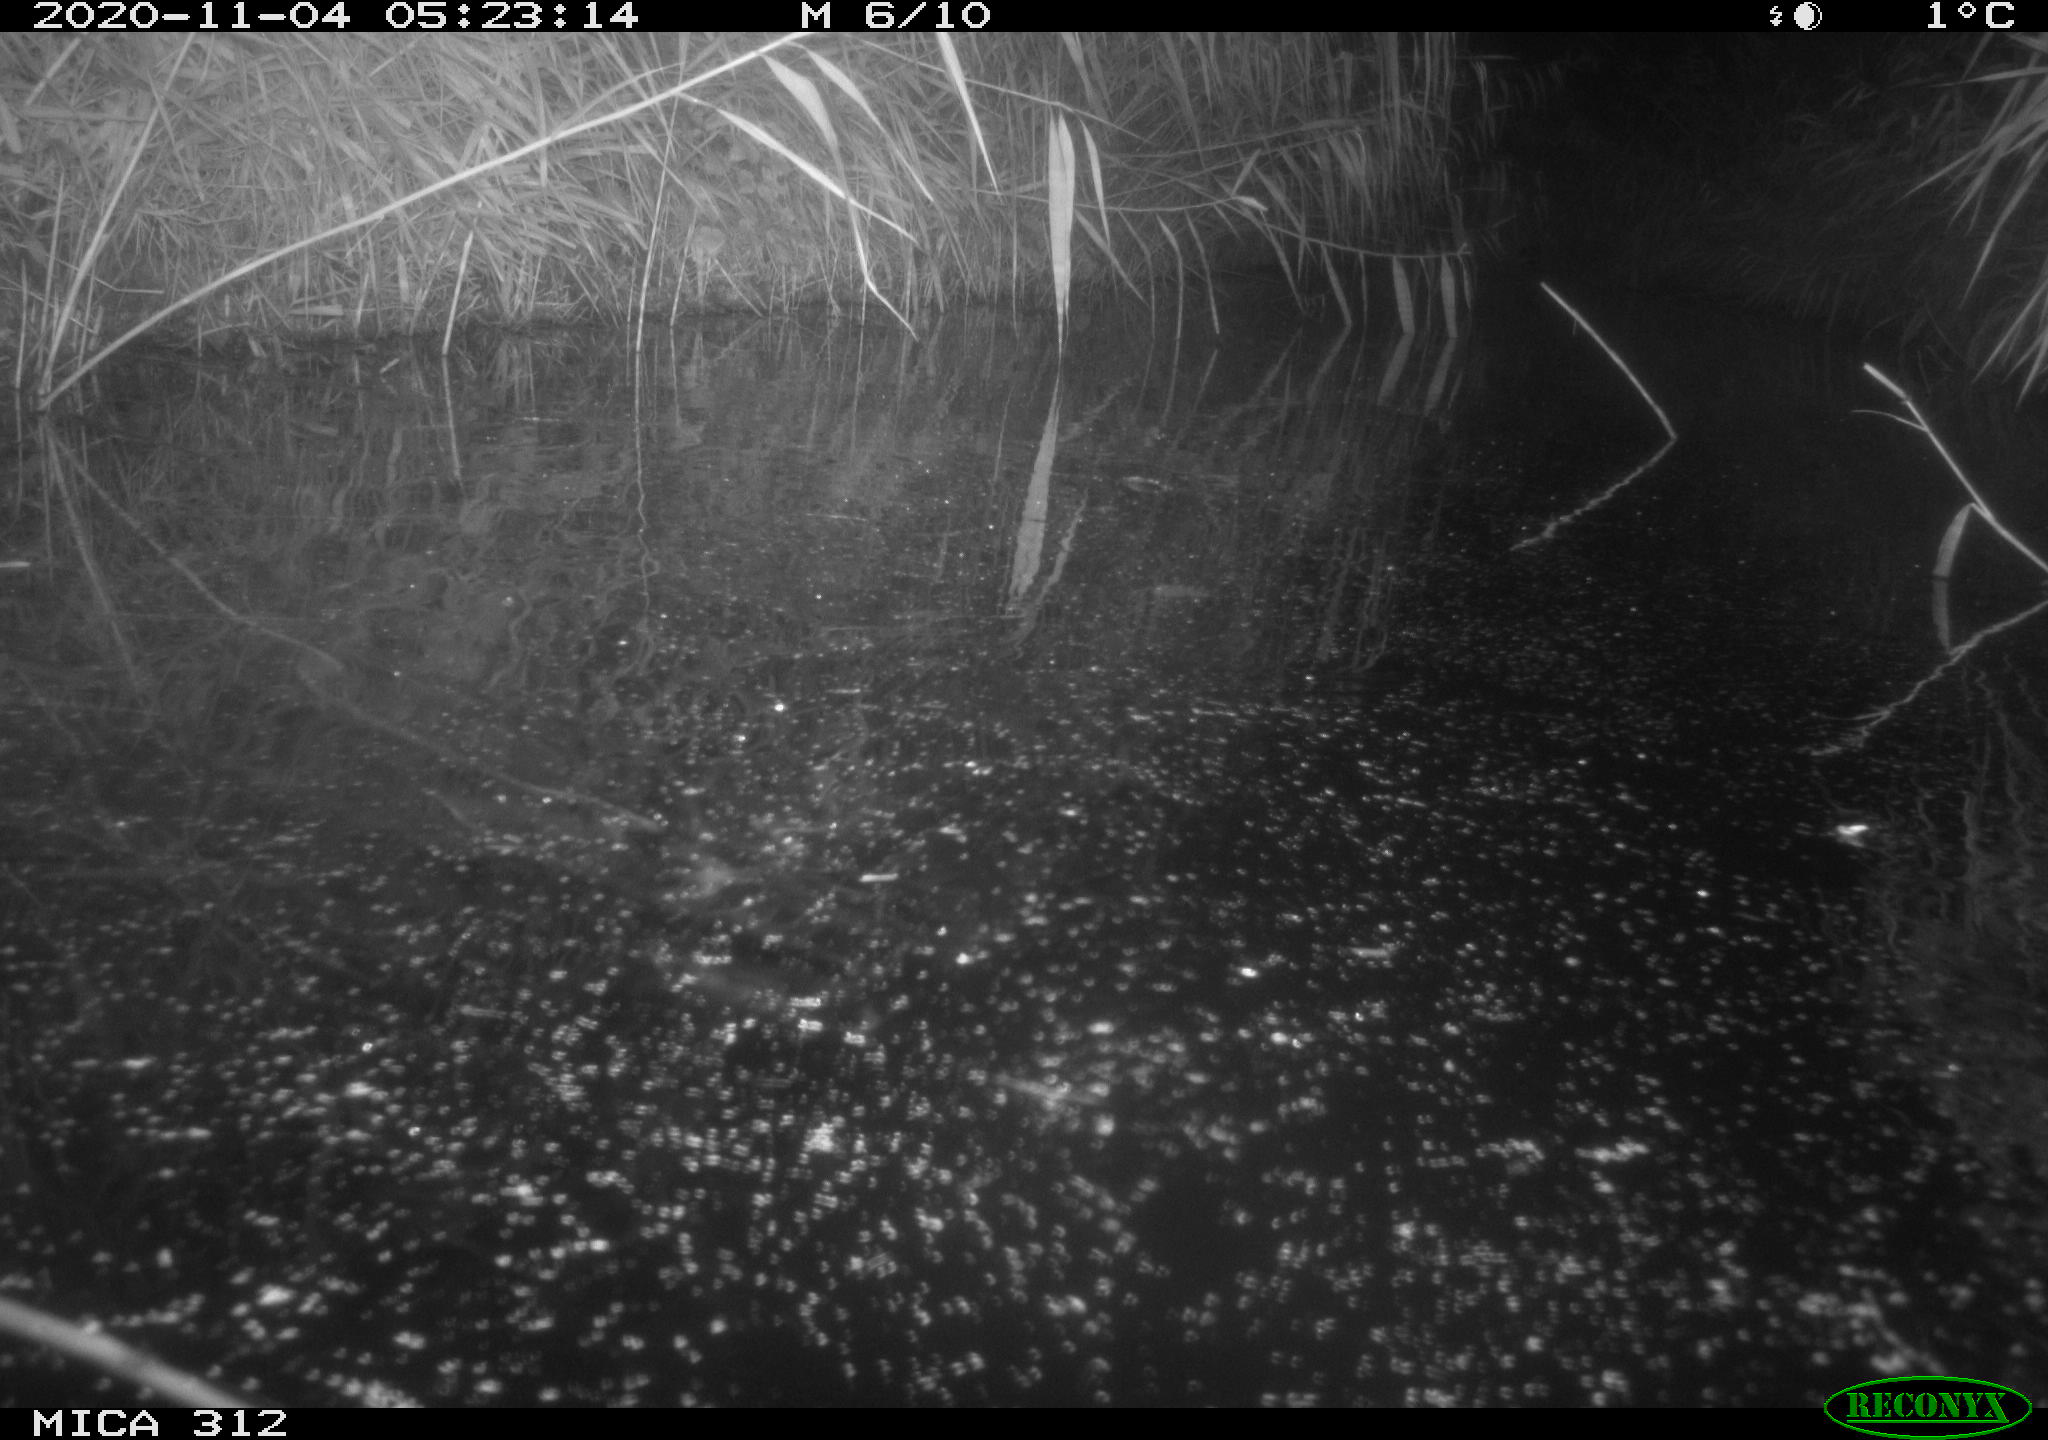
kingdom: Animalia
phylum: Chordata
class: Mammalia
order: Rodentia
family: Muridae
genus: Rattus
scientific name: Rattus norvegicus
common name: Brown rat
